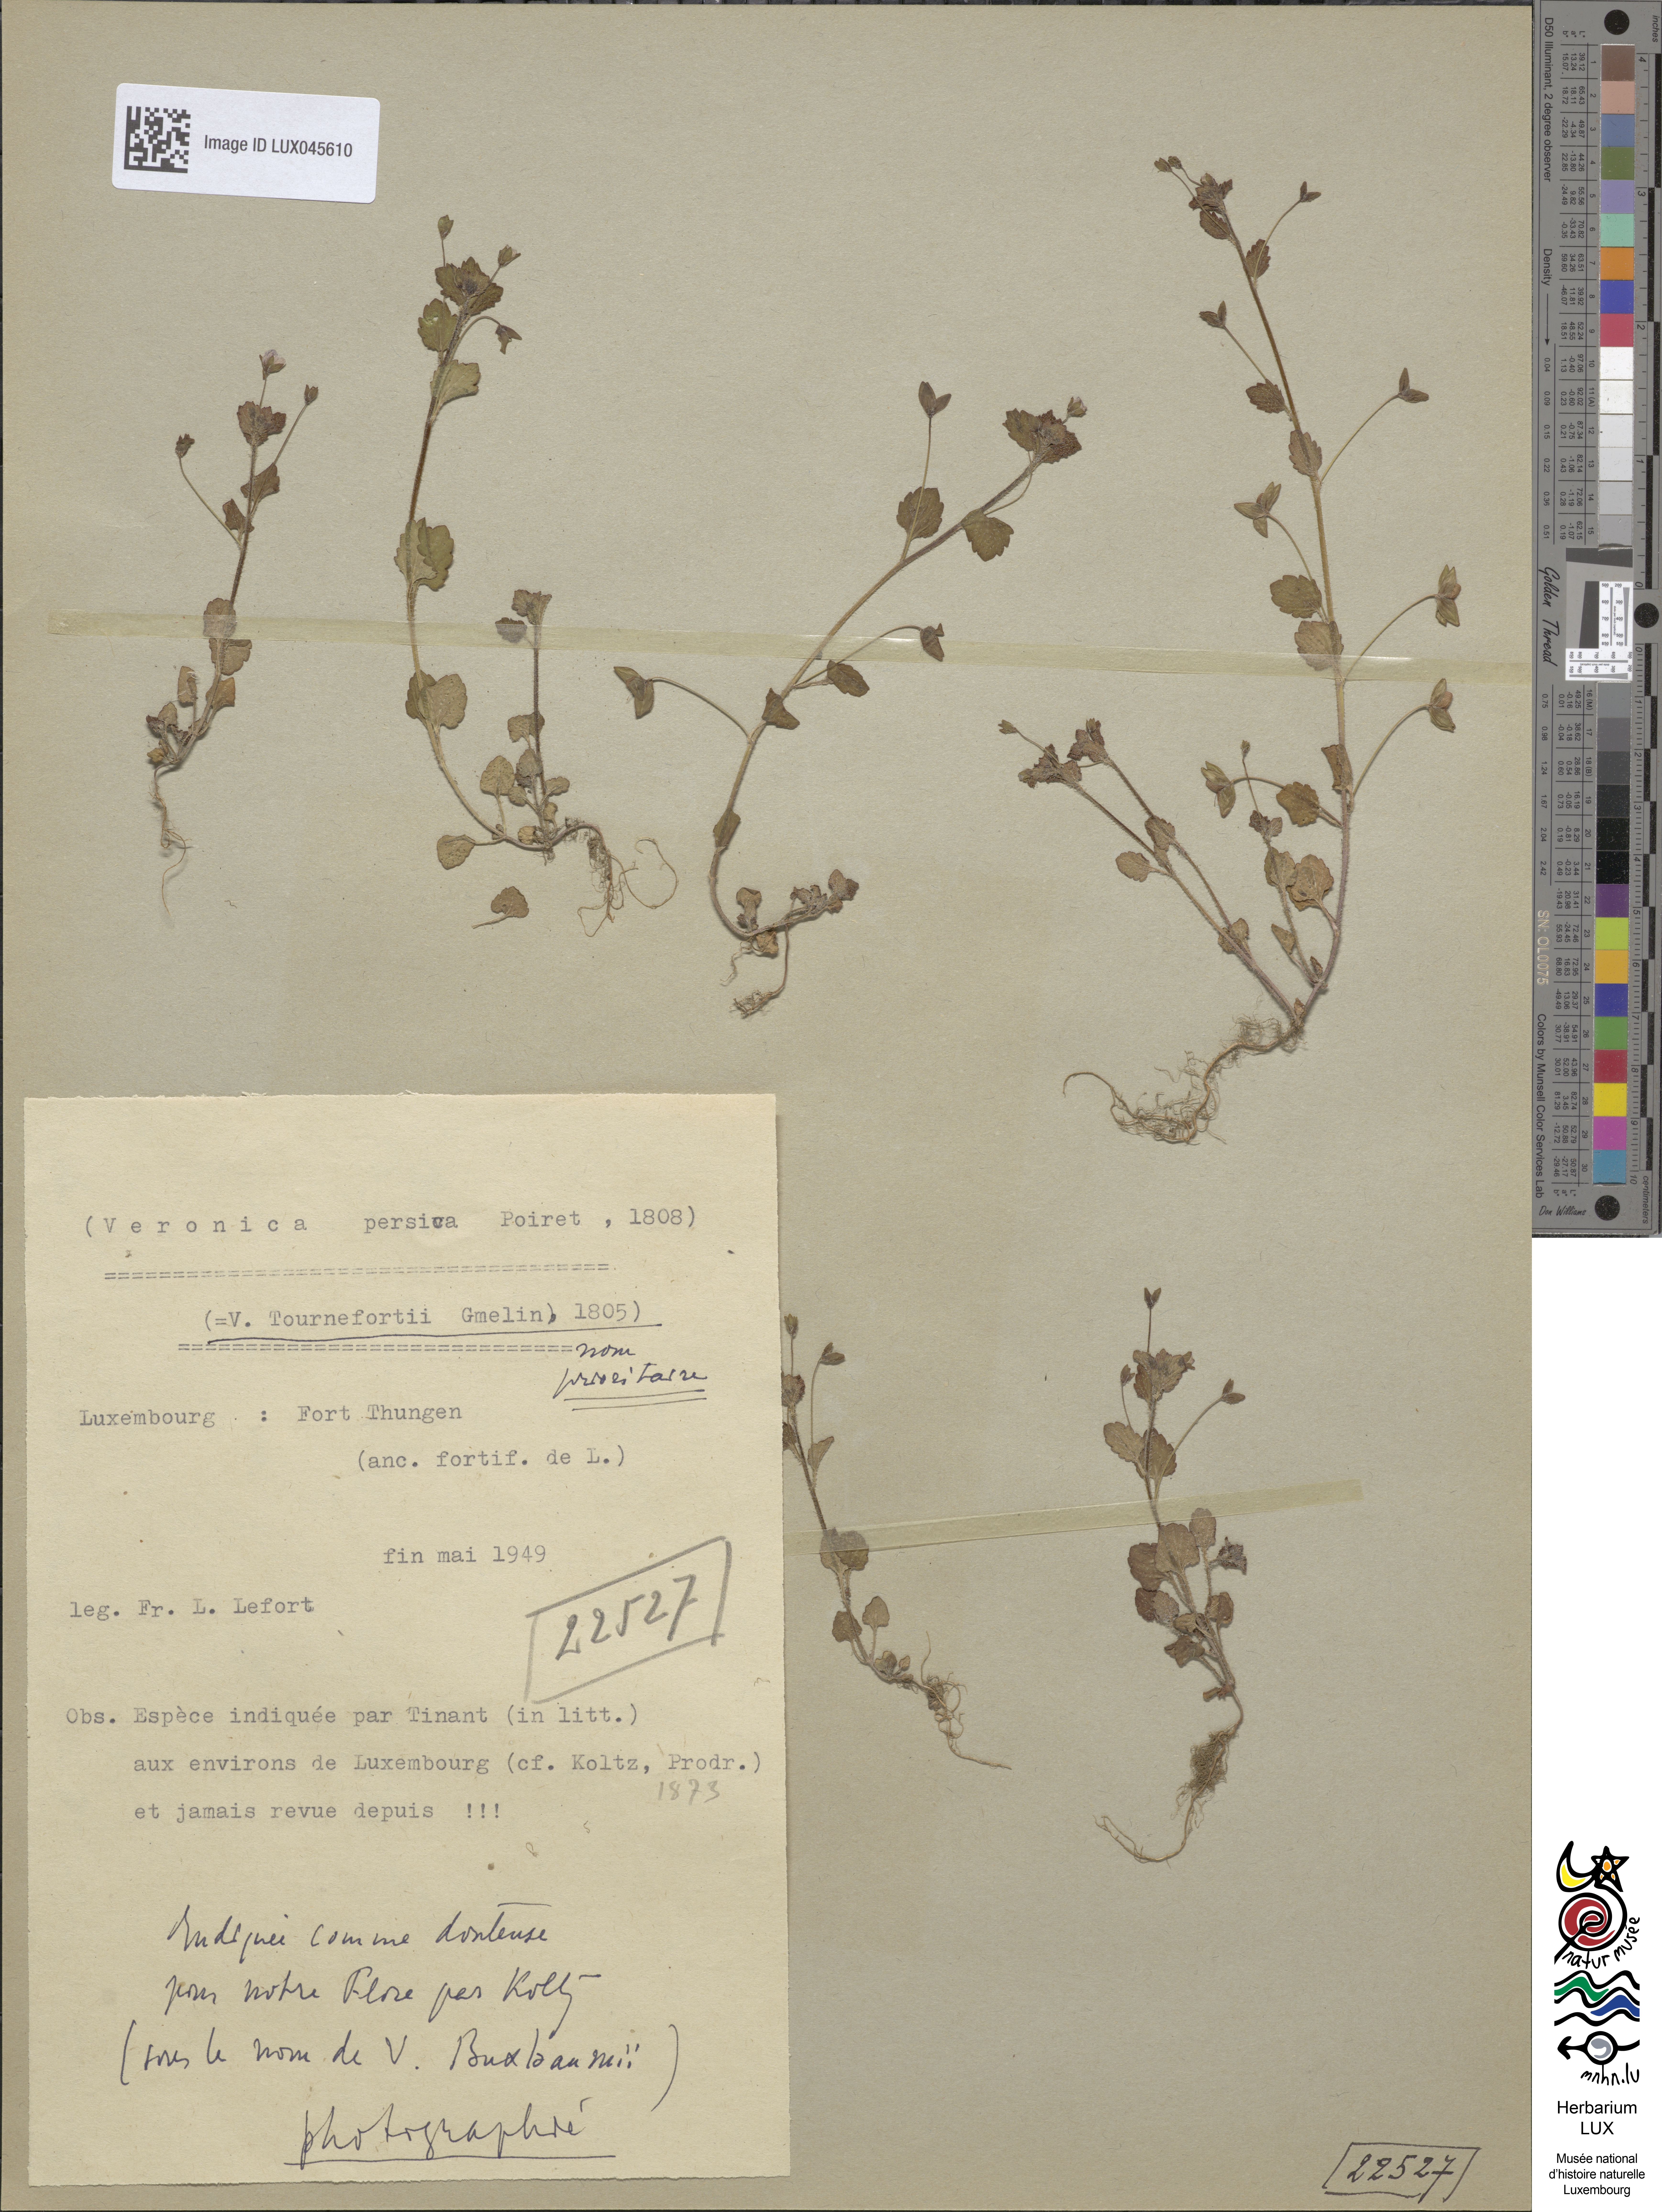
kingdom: Plantae
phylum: Tracheophyta
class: Magnoliopsida
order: Lamiales
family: Plantaginaceae
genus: Veronica
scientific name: Veronica persica
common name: Common field-speedwell
